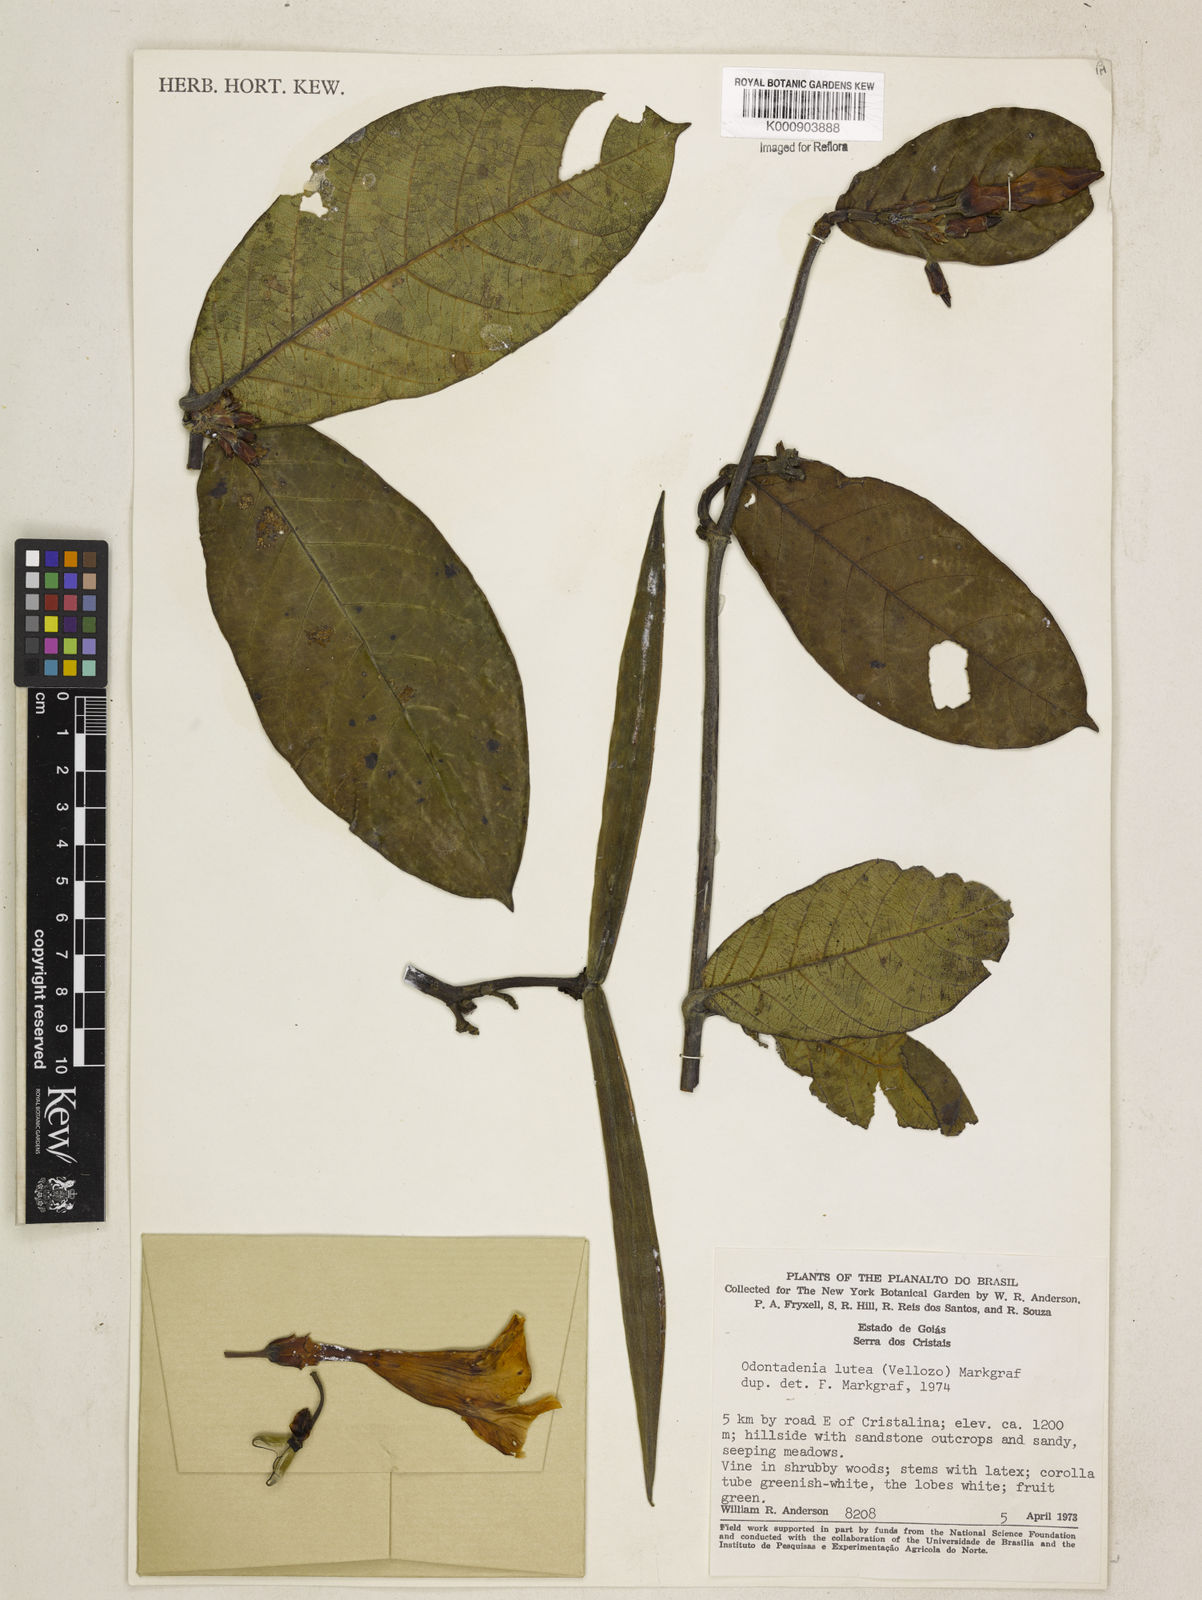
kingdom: Plantae
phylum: Tracheophyta
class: Magnoliopsida
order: Gentianales
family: Apocynaceae
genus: Odontadenia
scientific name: Odontadenia lutea
